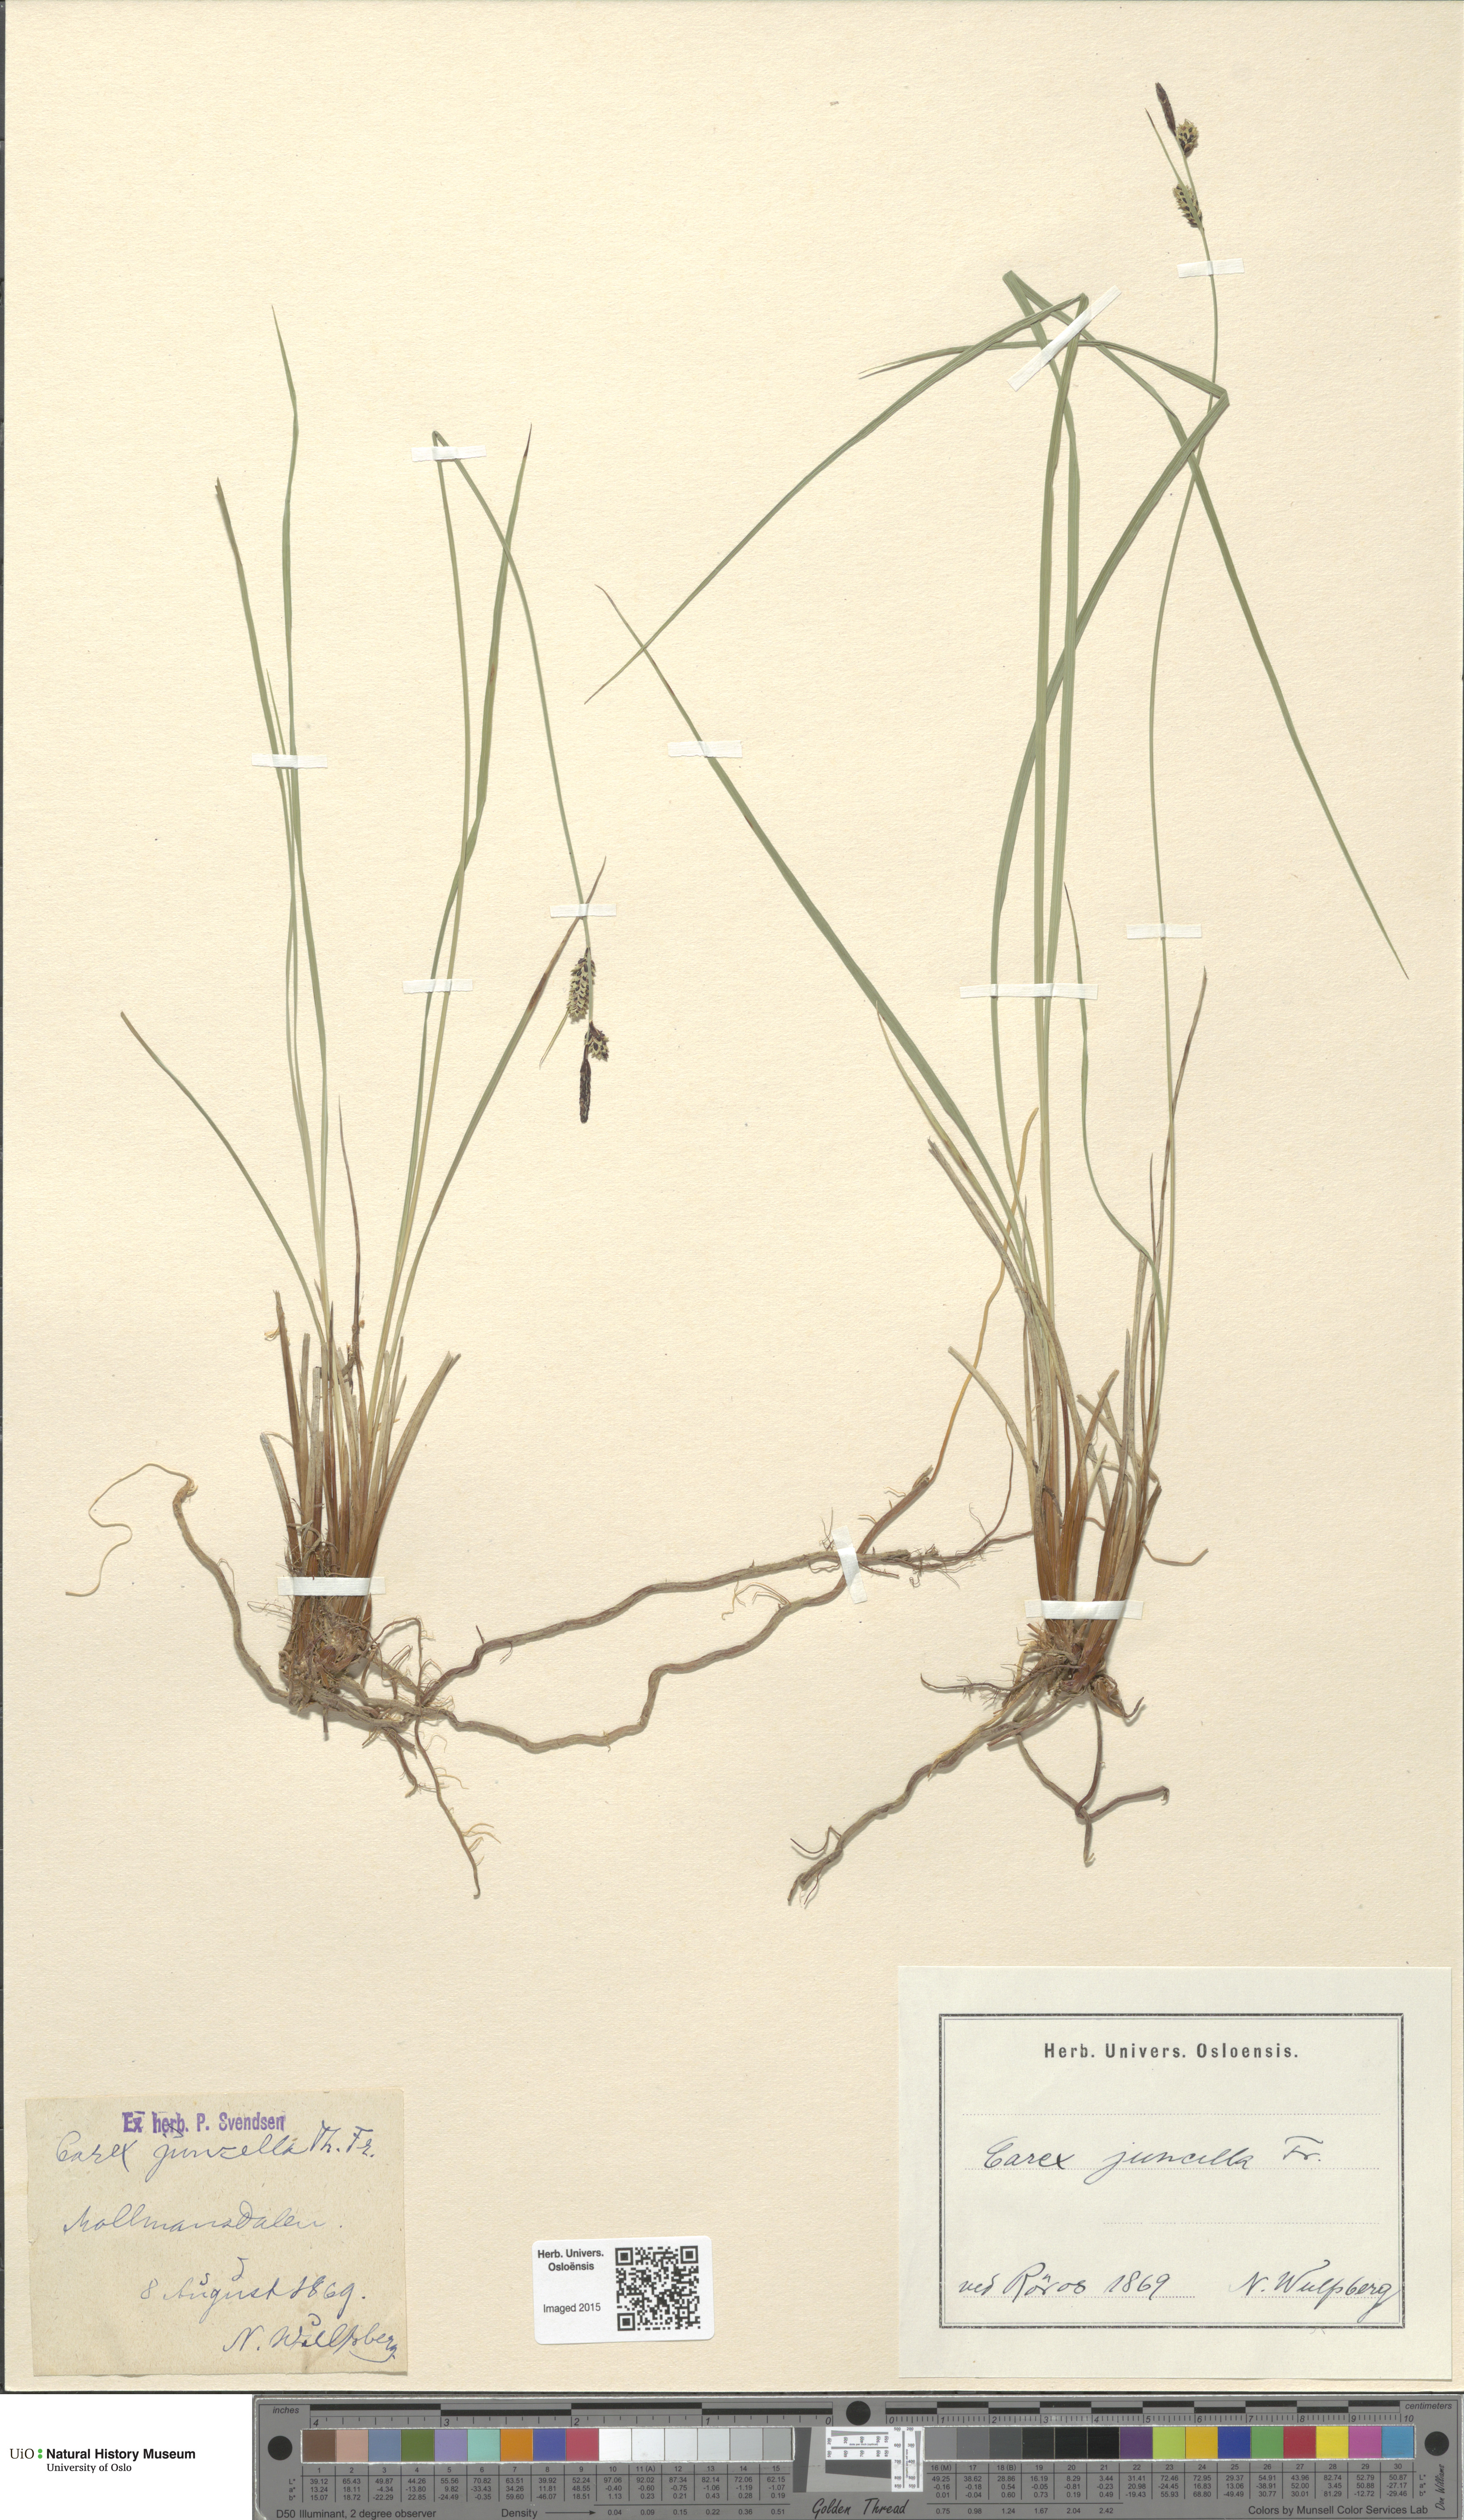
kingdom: Plantae
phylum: Tracheophyta
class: Liliopsida
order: Poales
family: Cyperaceae
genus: Carex
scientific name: Carex nigra
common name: Common sedge
